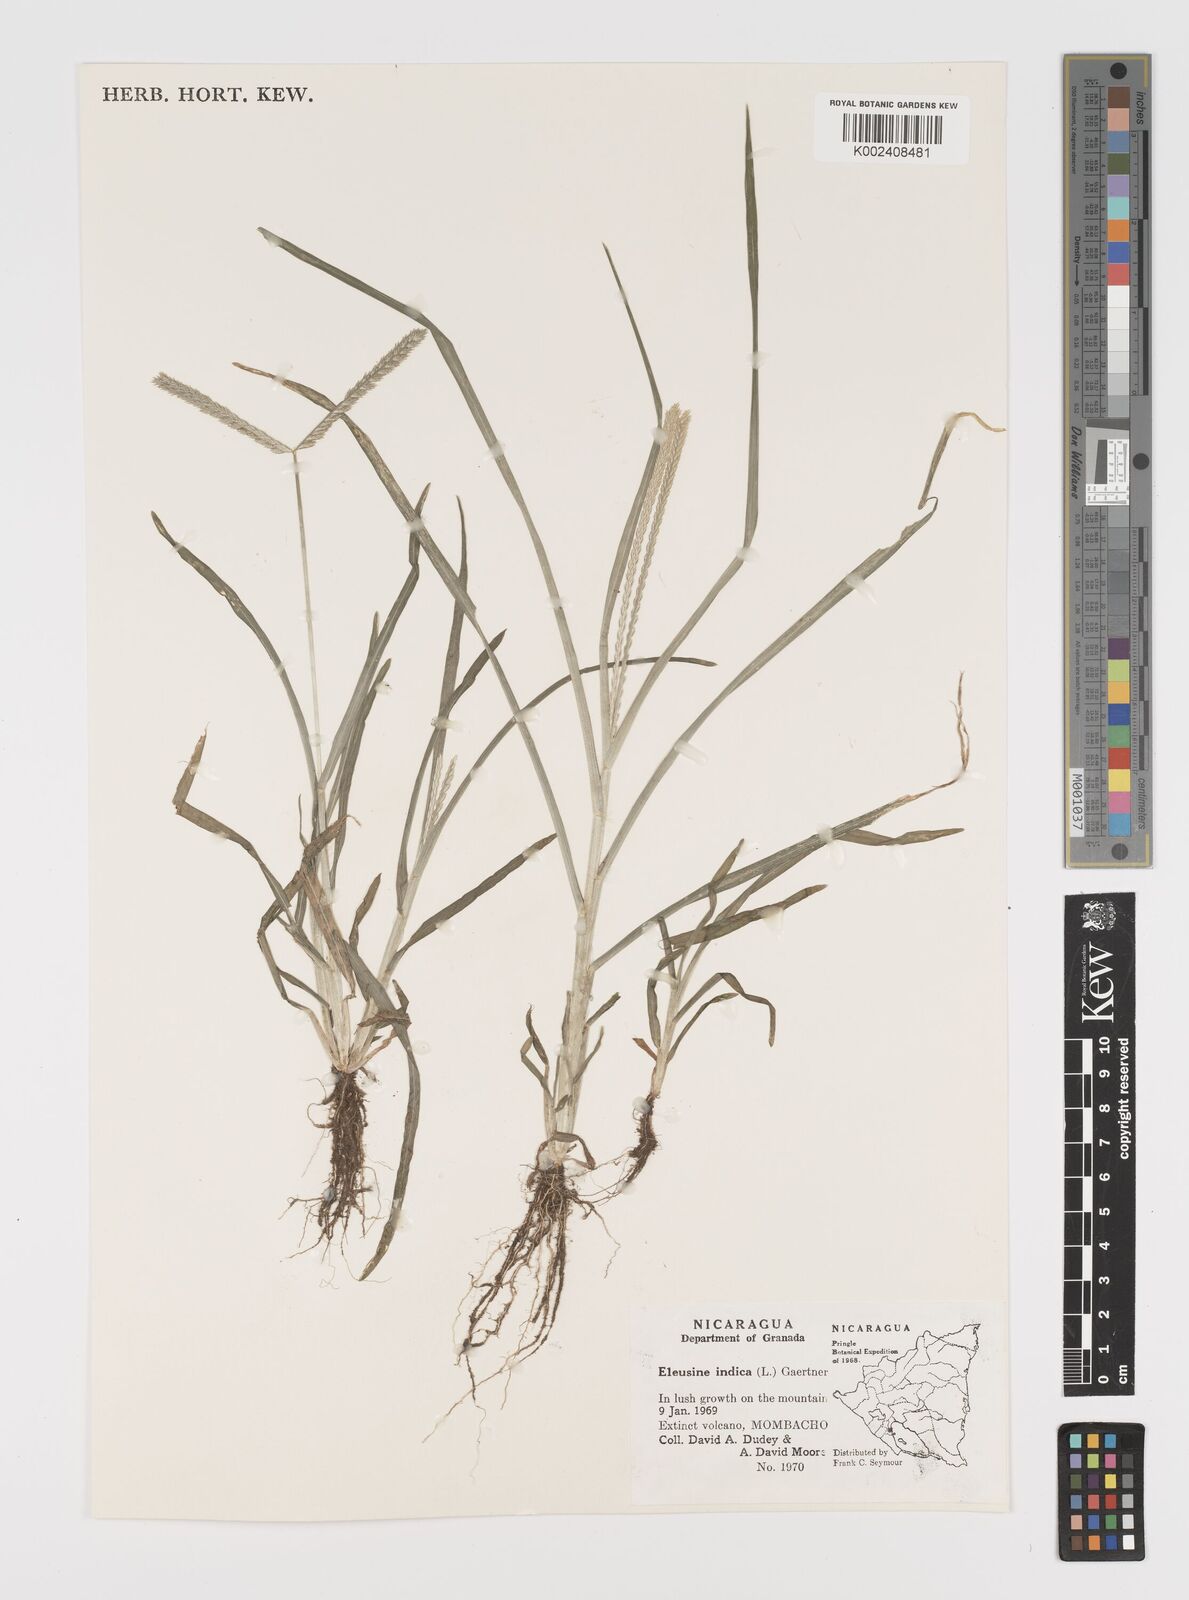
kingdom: Plantae
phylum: Tracheophyta
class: Liliopsida
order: Poales
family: Poaceae
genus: Eleusine
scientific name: Eleusine indica
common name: Yard-grass
